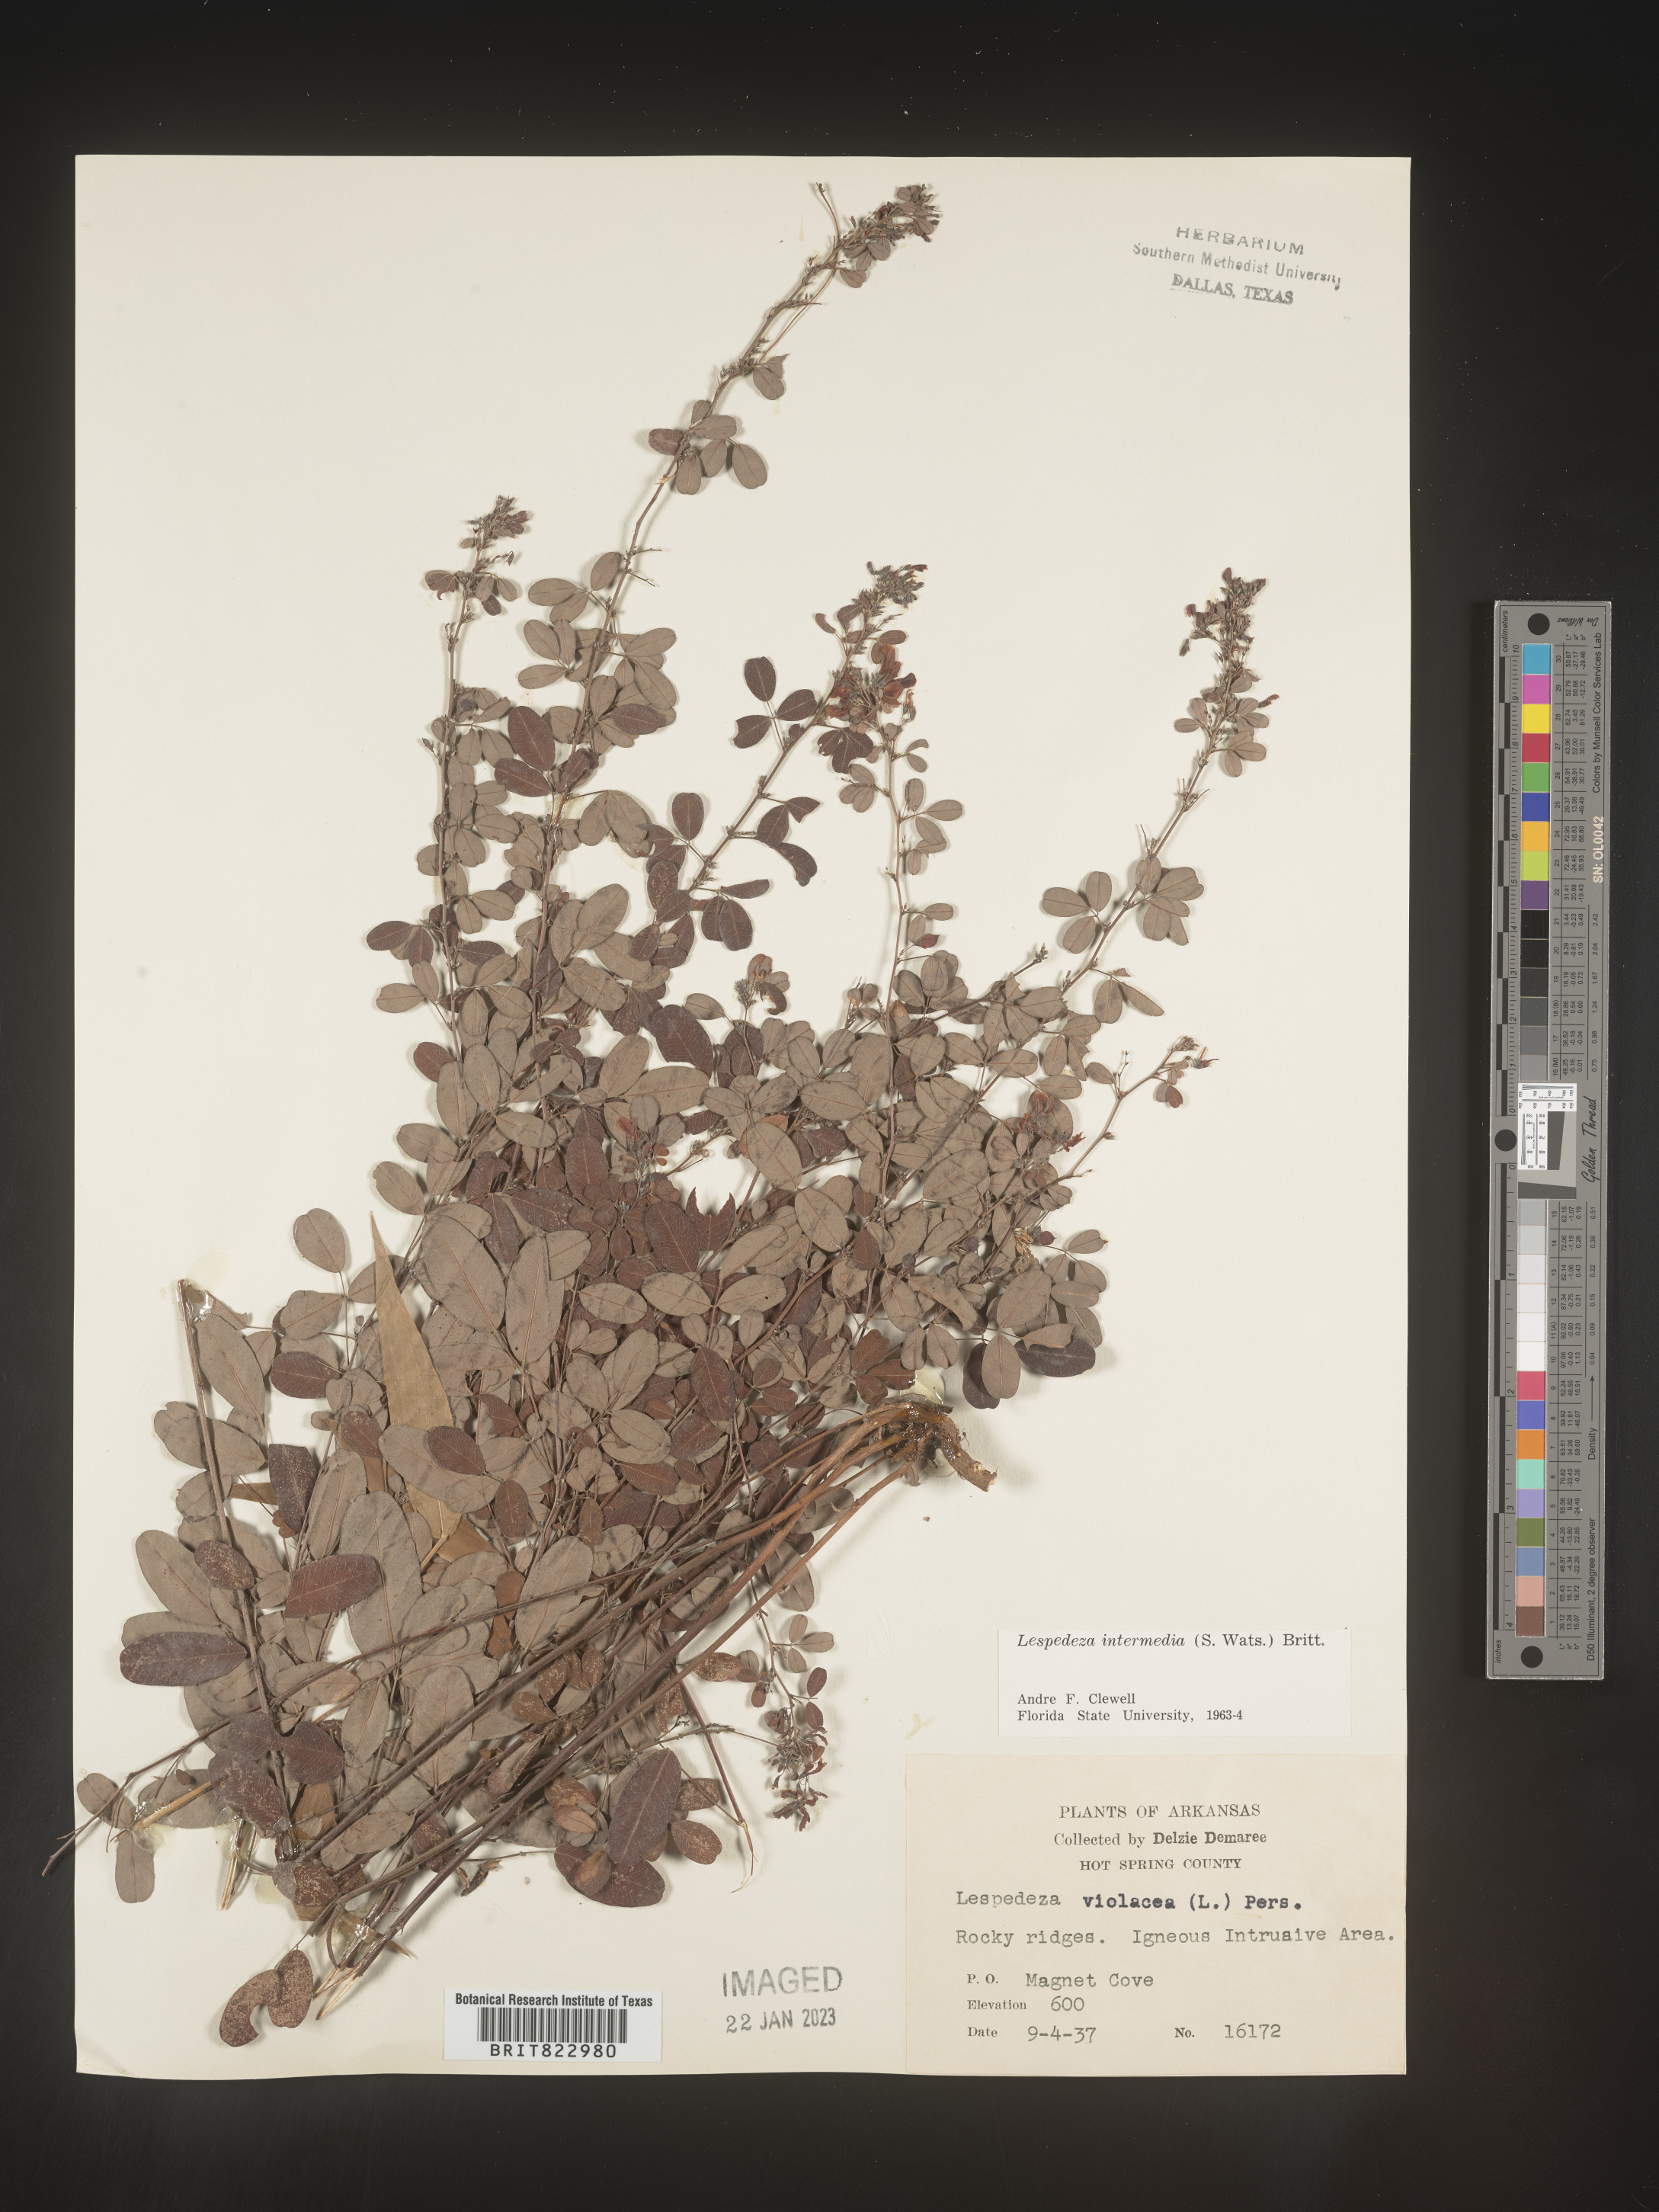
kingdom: Plantae
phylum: Tracheophyta
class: Magnoliopsida
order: Fabales
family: Fabaceae
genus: Lespedeza
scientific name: Lespedeza
